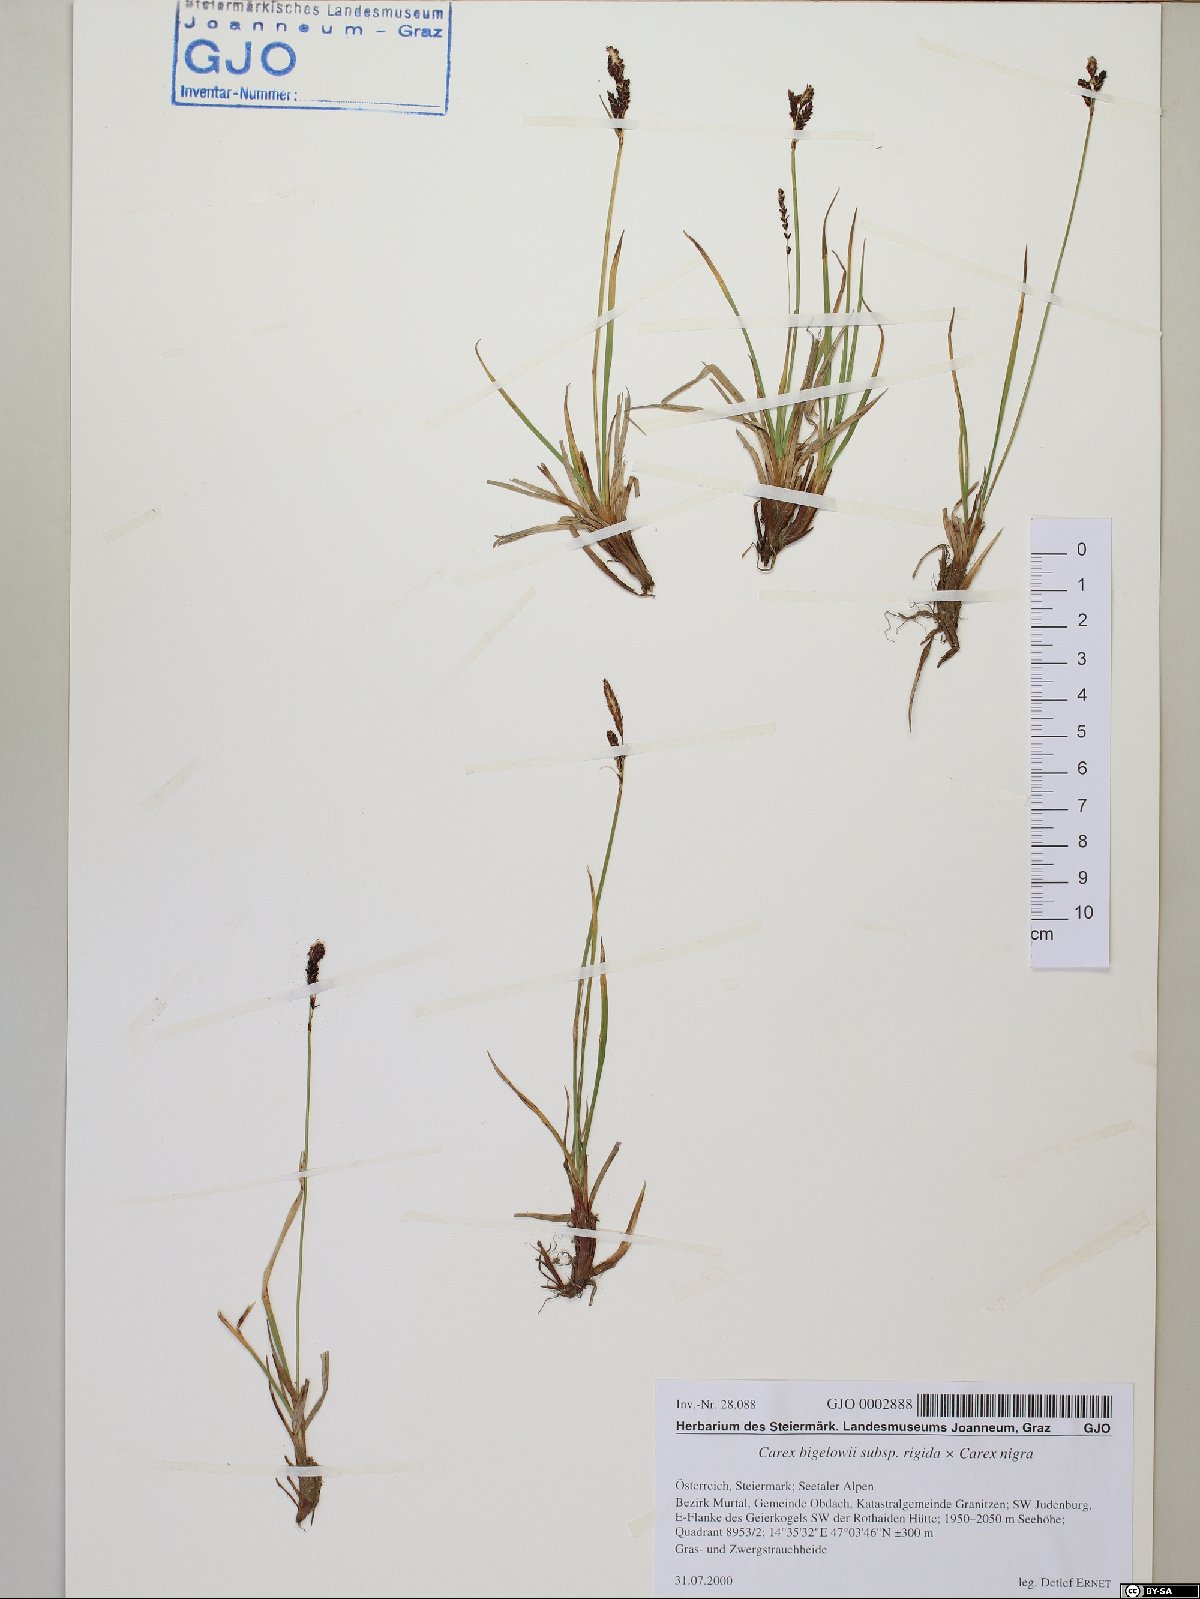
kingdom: Plantae
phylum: Tracheophyta
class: Liliopsida
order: Poales
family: Cyperaceae
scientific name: Cyperaceae
